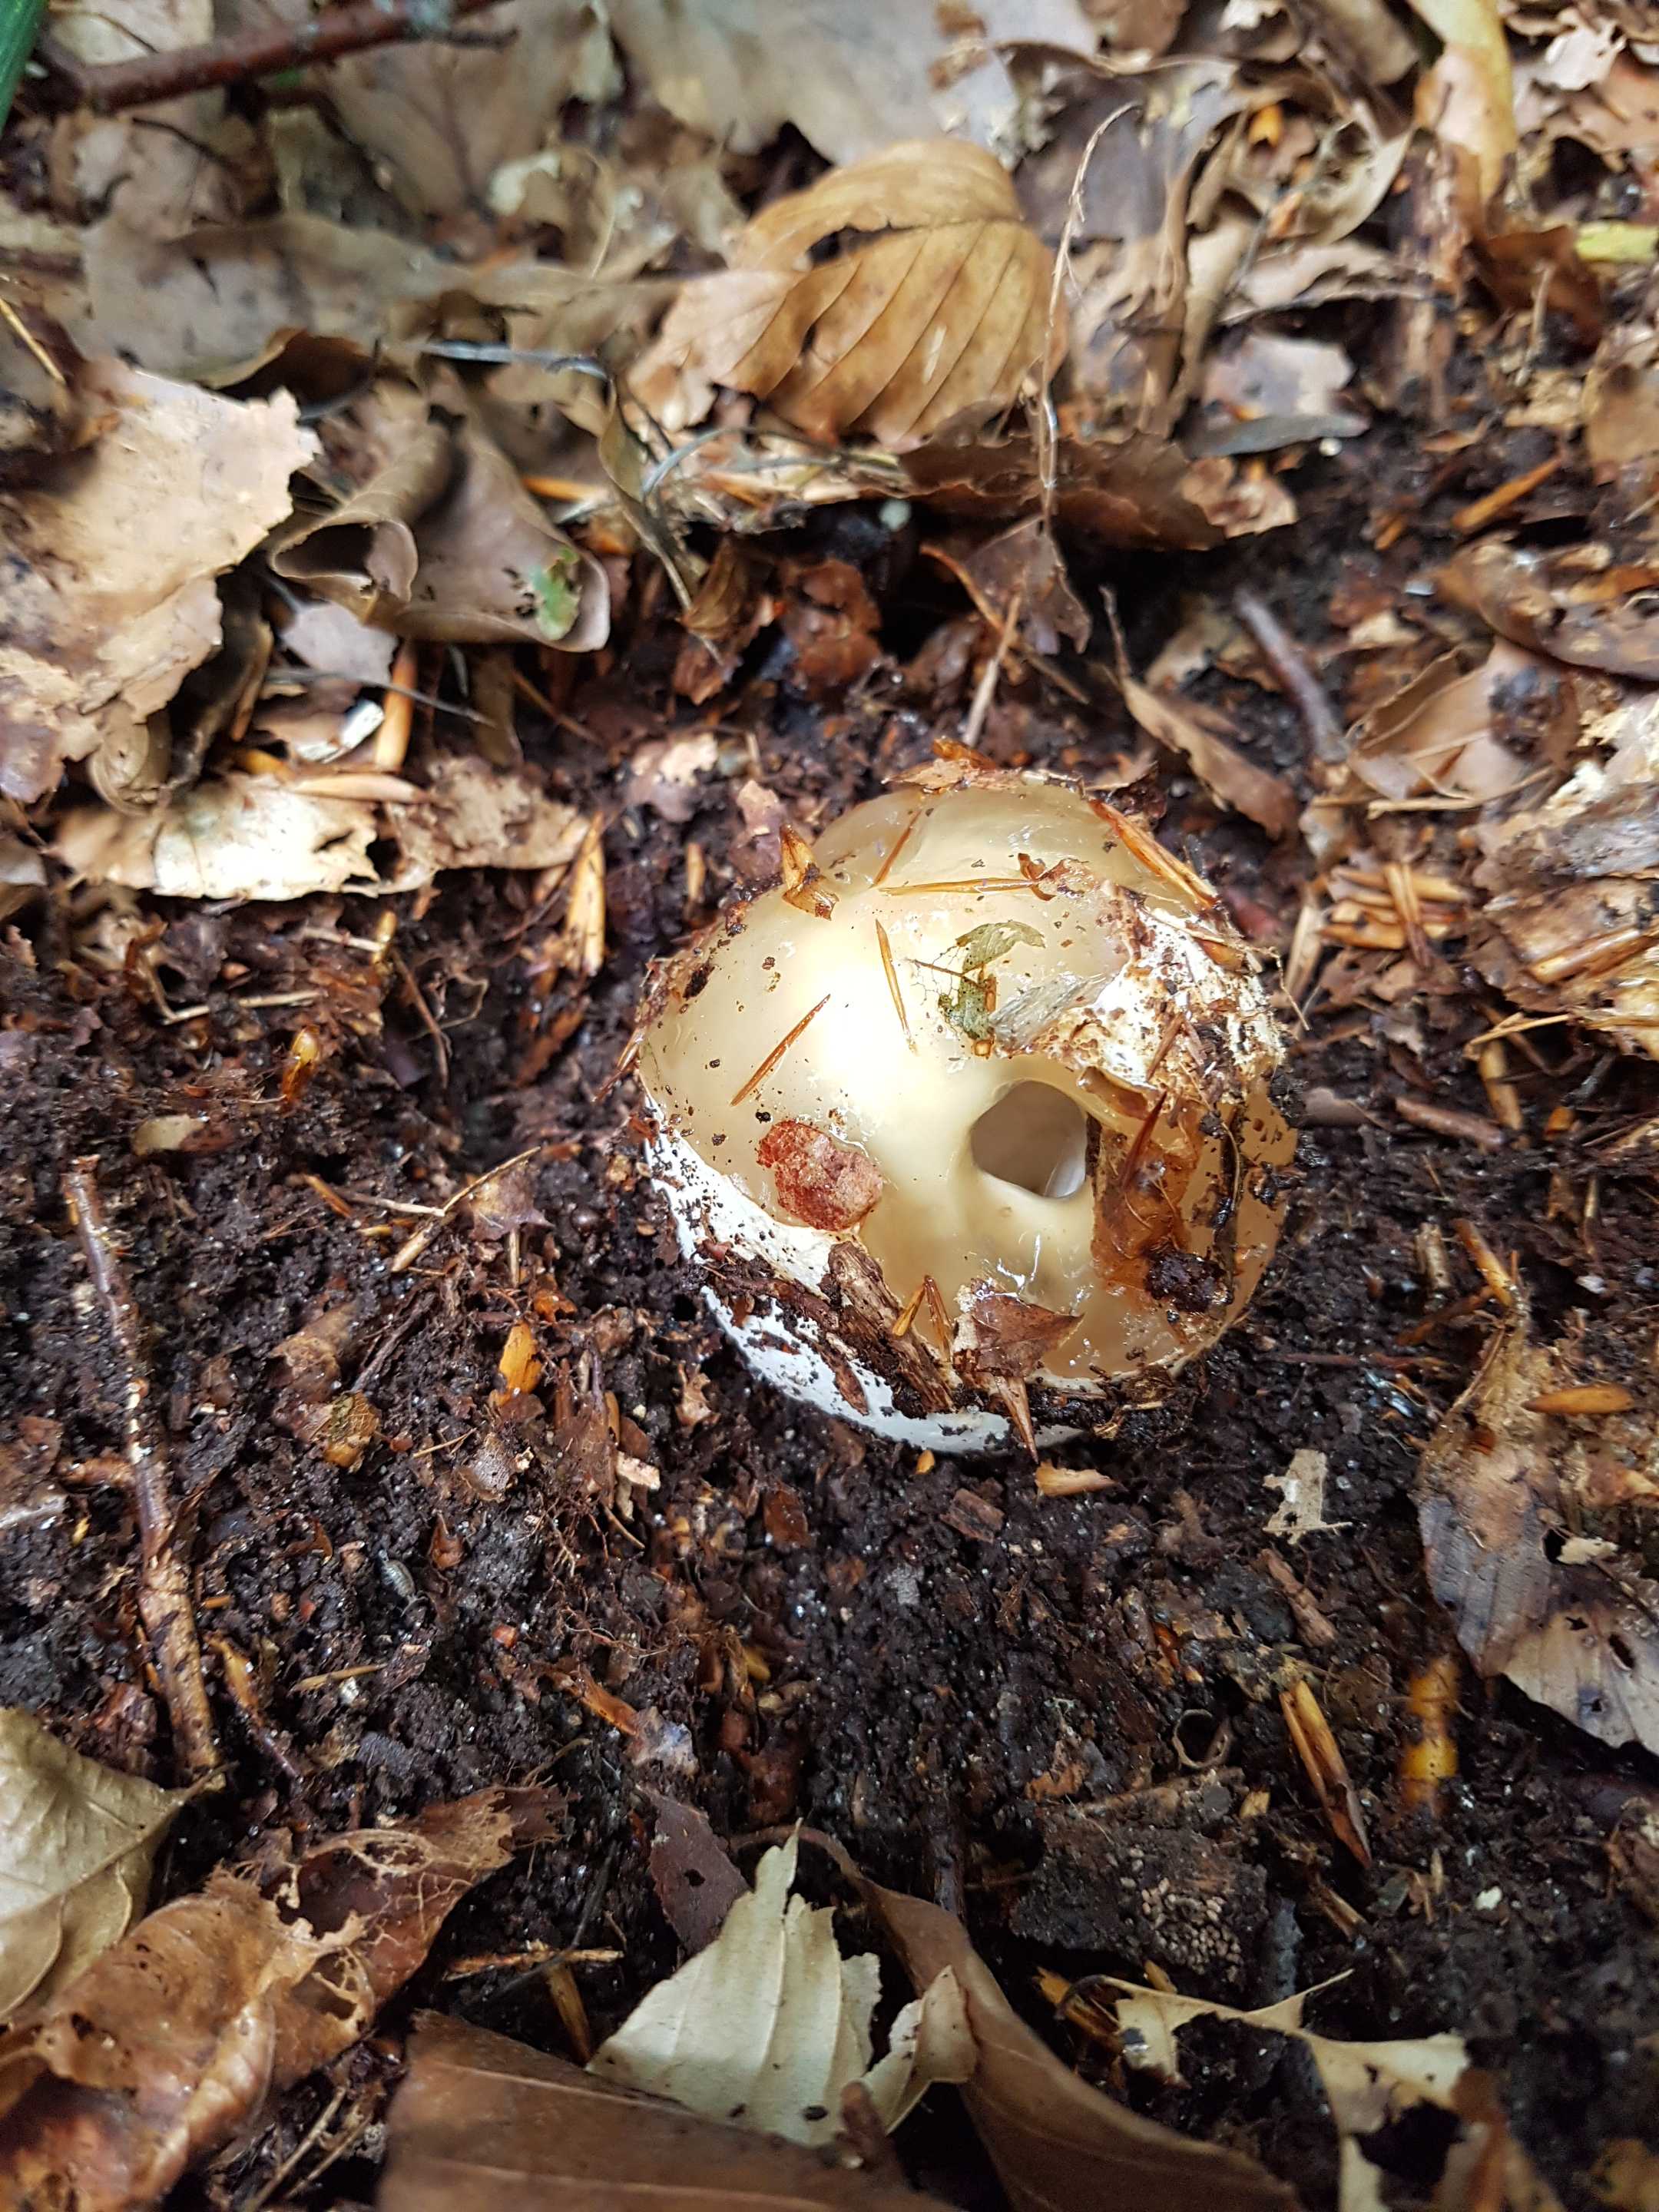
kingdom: Fungi
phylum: Basidiomycota
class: Agaricomycetes
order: Phallales
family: Phallaceae
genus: Phallus
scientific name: Phallus impudicus
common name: almindelig stinksvamp
